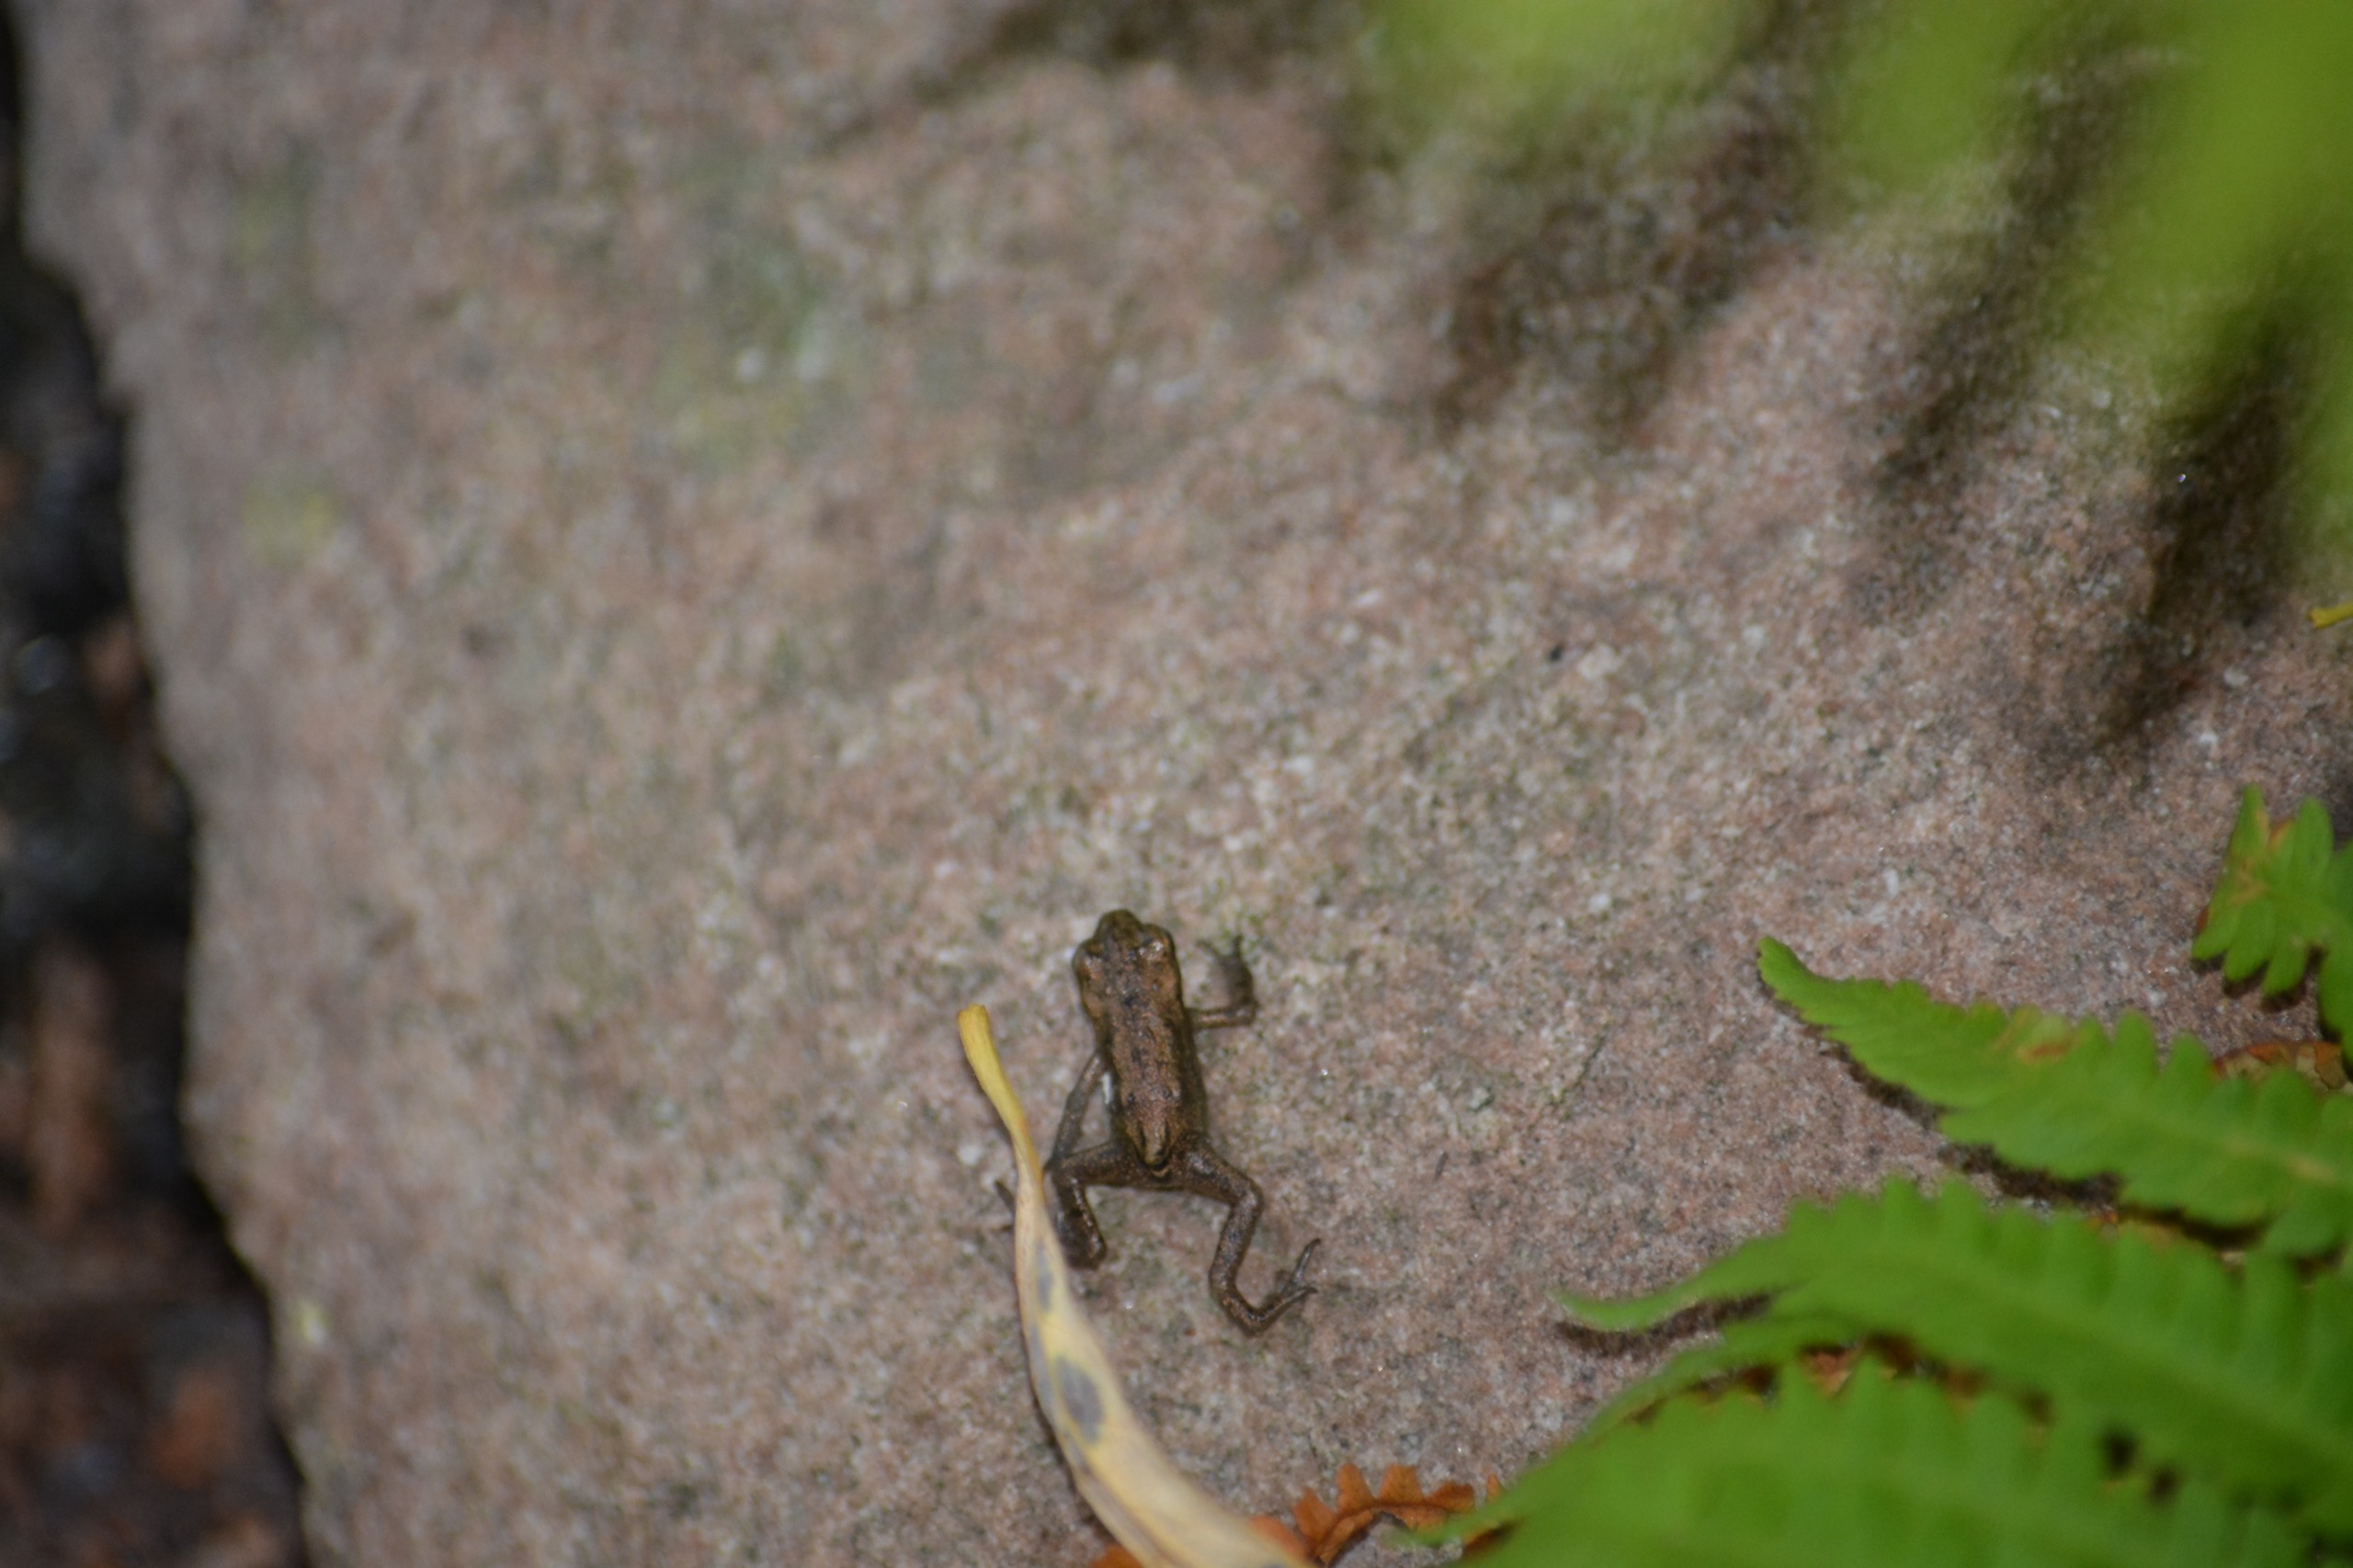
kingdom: Animalia
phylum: Chordata
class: Amphibia
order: Anura
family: Bufonidae
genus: Bufo
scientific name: Bufo bufo
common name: Skrubtudse
